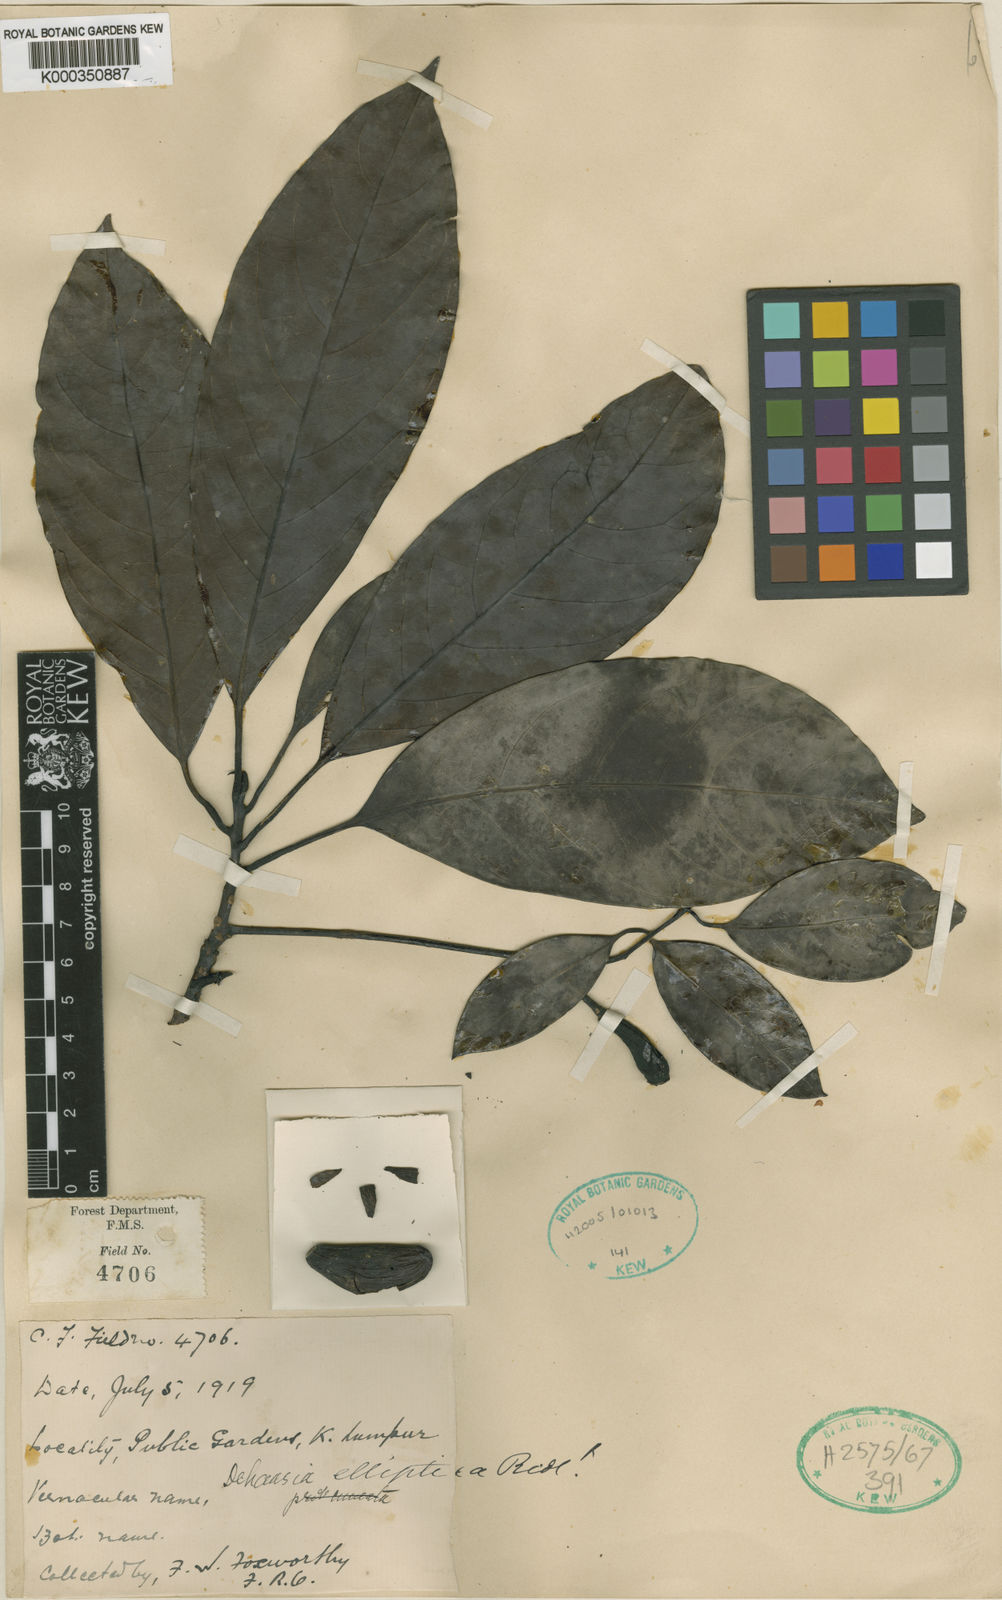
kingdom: Plantae
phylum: Tracheophyta
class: Magnoliopsida
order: Laurales
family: Lauraceae
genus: Dehaasia
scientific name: Dehaasia polyneura
